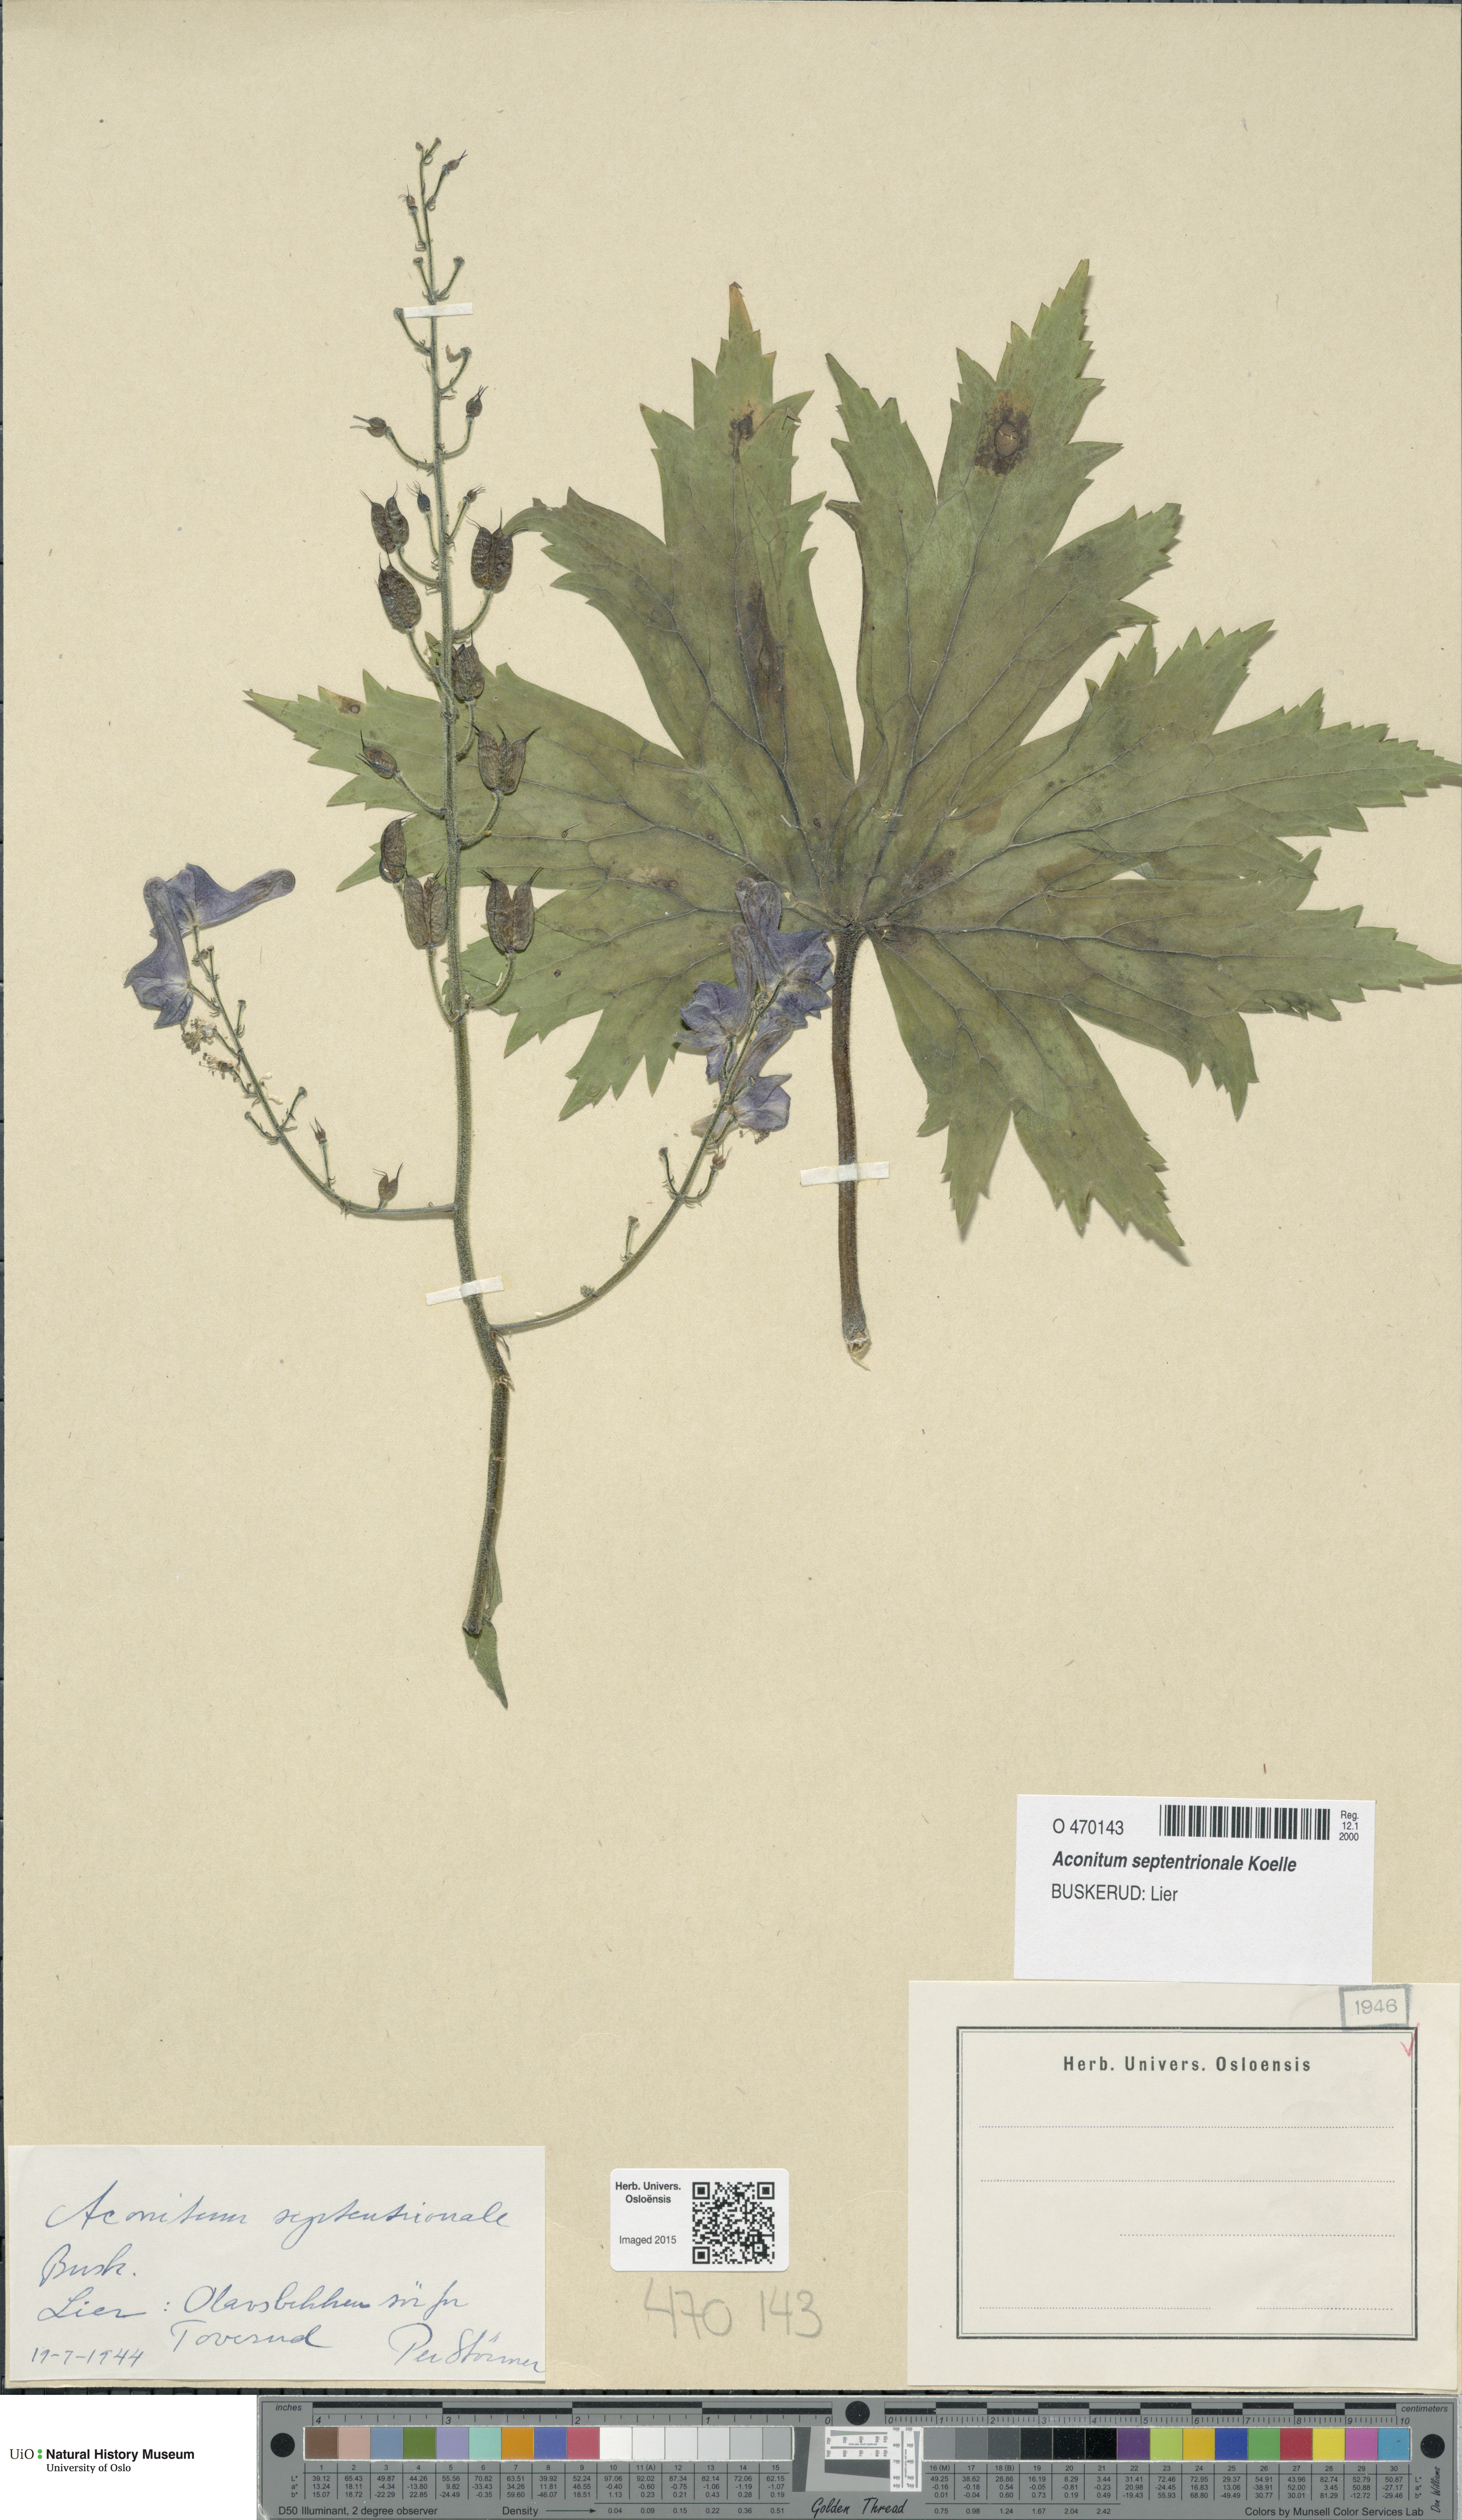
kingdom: Plantae
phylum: Tracheophyta
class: Magnoliopsida
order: Ranunculales
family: Ranunculaceae
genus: Aconitum
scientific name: Aconitum septentrionale
